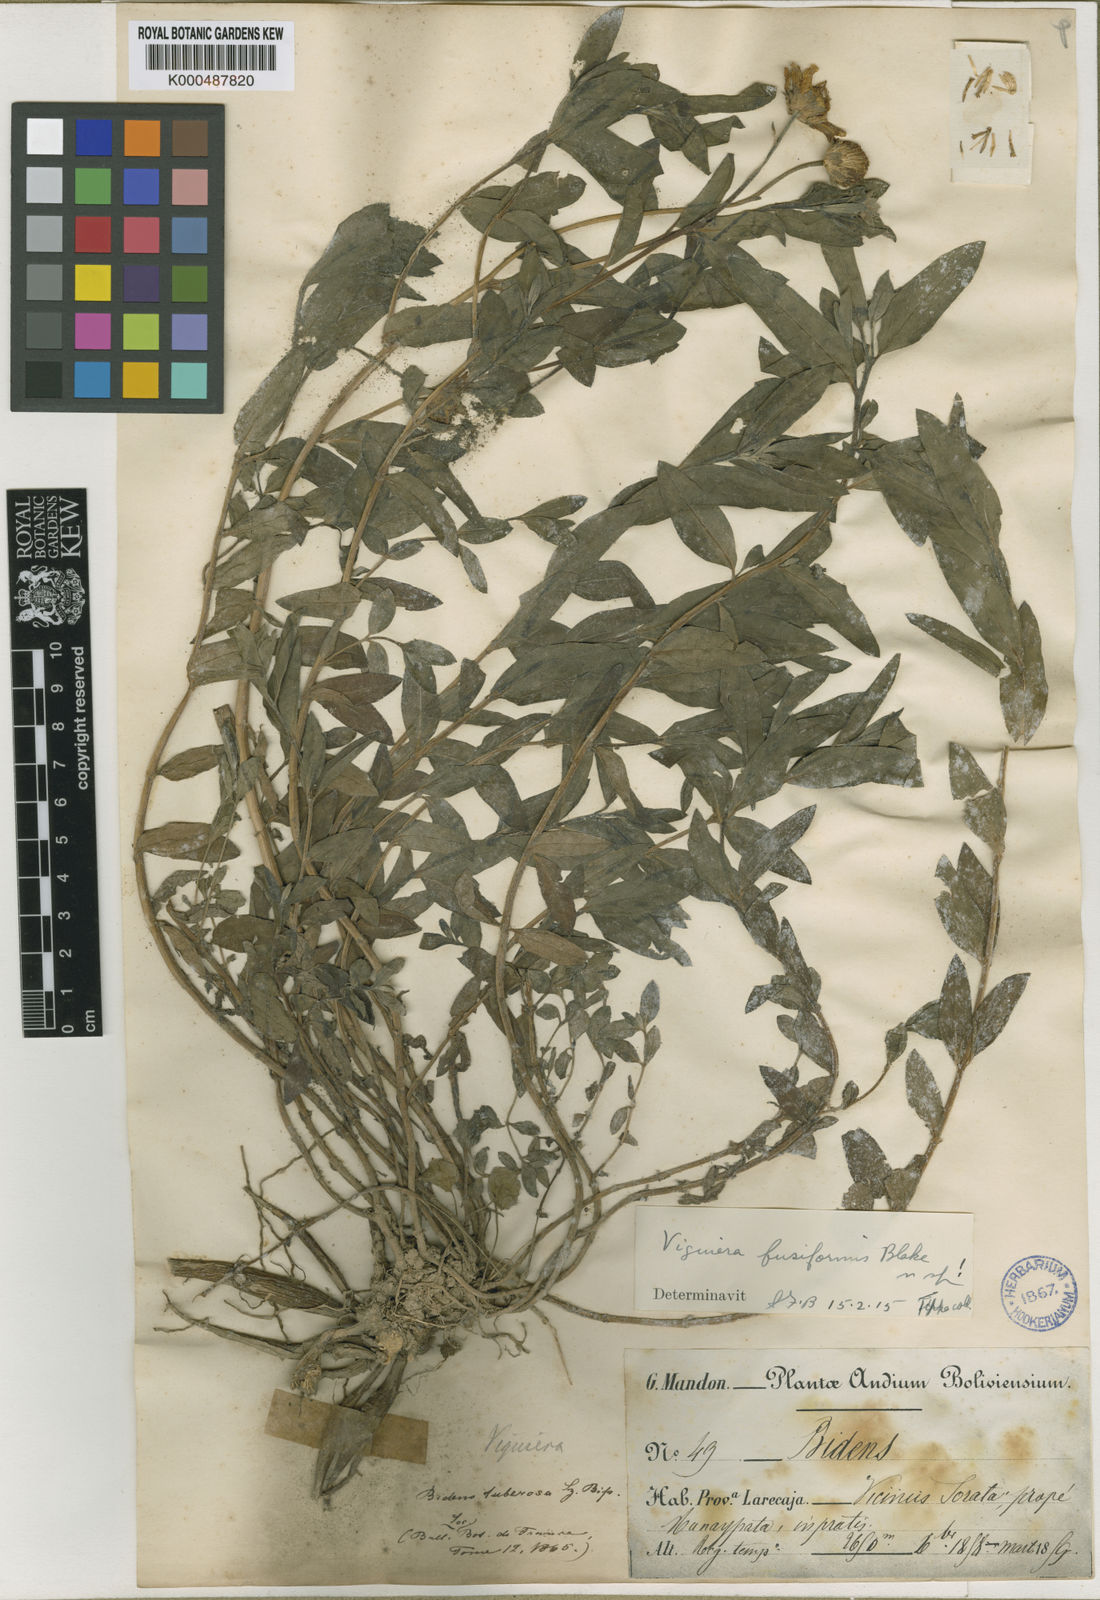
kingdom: Plantae
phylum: Tracheophyta
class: Magnoliopsida
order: Asterales
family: Asteraceae
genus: Aldama
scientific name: Aldama fusiformis
